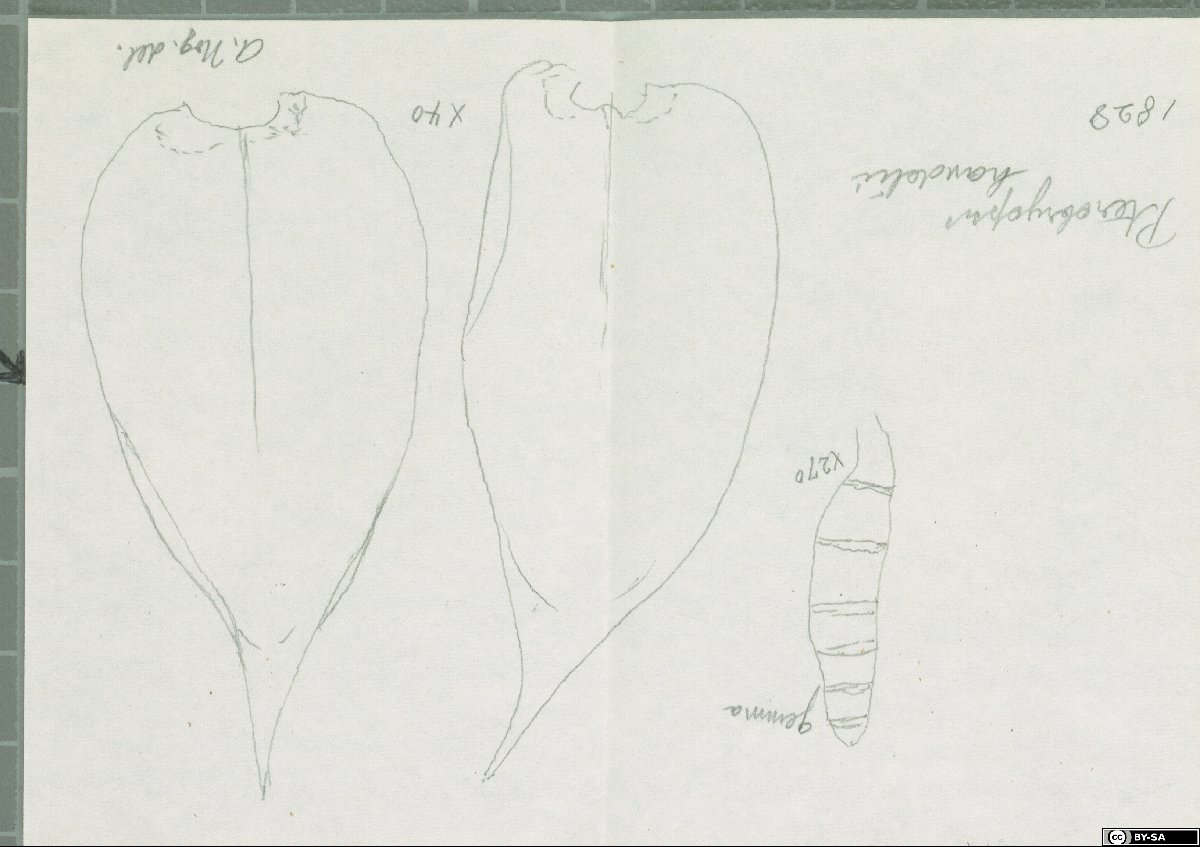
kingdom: Plantae
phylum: Bryophyta
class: Bryopsida
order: Hypnales
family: Pterobryaceae
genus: Pterobryopsis
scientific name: Pterobryopsis acuminata
